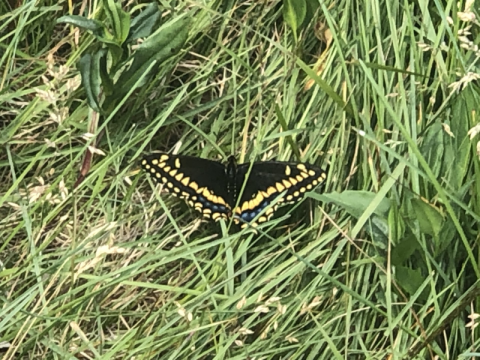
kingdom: Animalia
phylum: Arthropoda
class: Insecta
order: Lepidoptera
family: Papilionidae
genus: Papilio
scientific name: Papilio brevicauda
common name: Short-tailed Swallowtail
